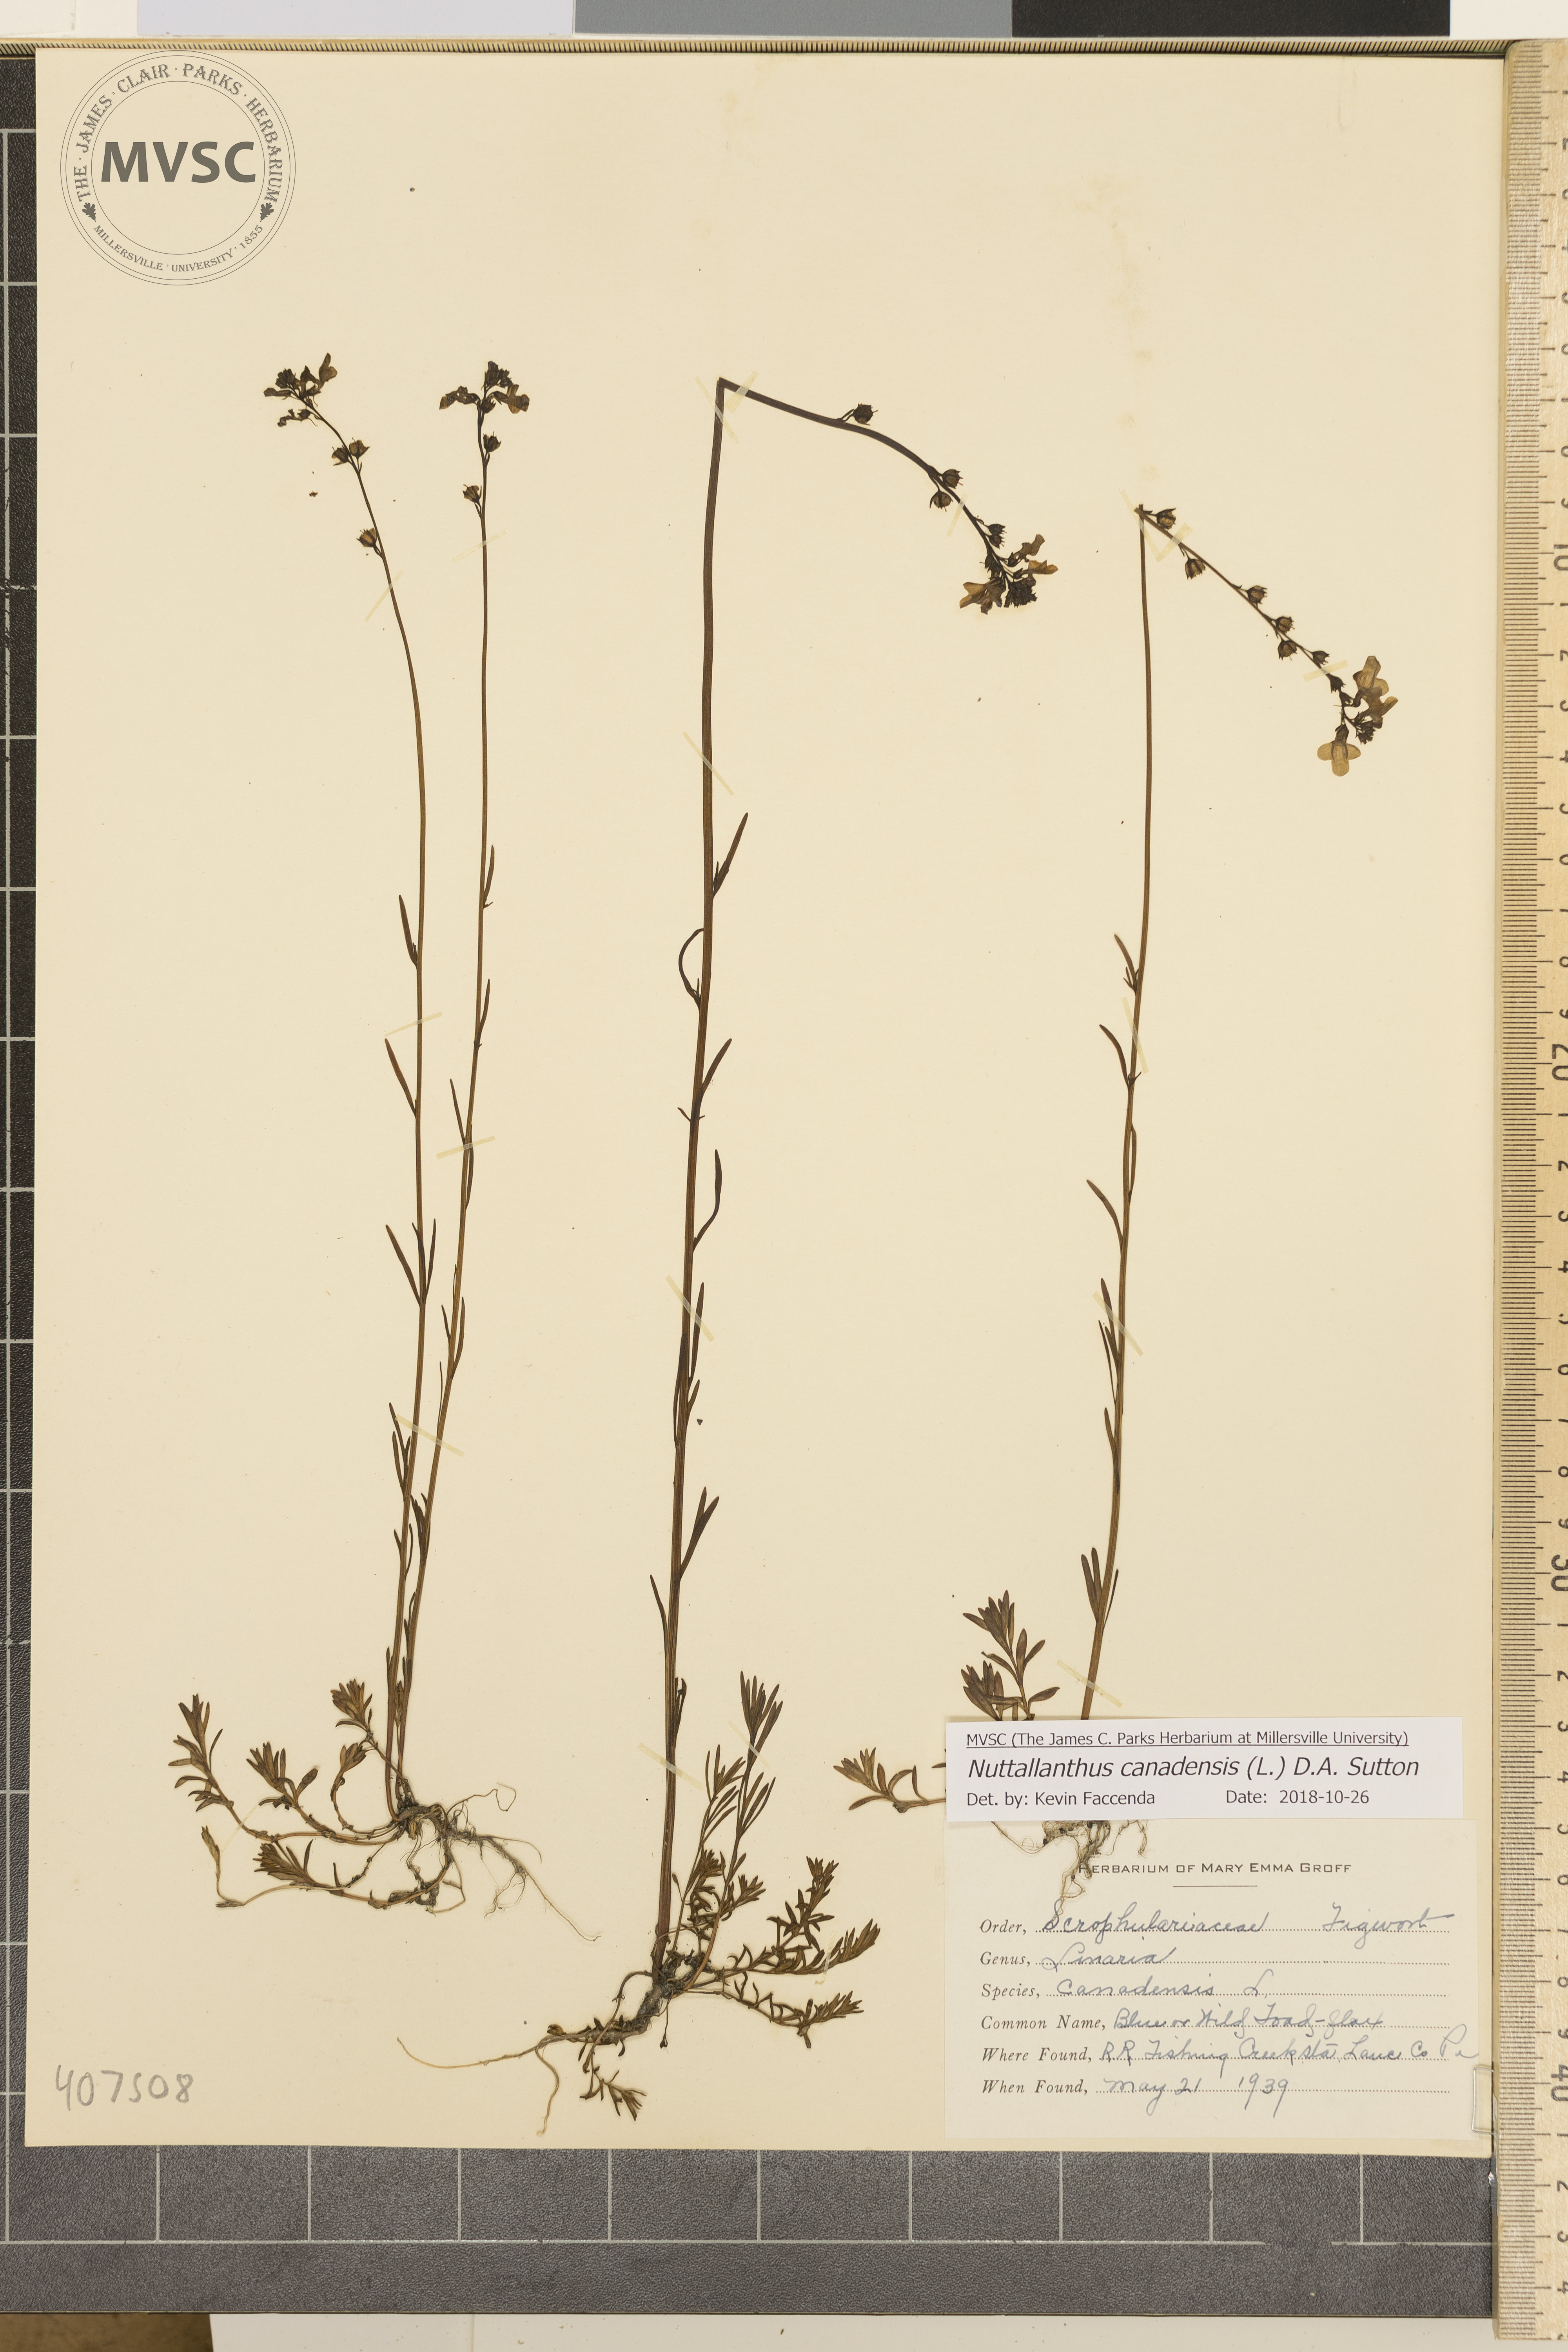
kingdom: Plantae
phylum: Tracheophyta
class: Magnoliopsida
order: Lamiales
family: Plantaginaceae
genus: Nuttallanthus
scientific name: Nuttallanthus canadensis
